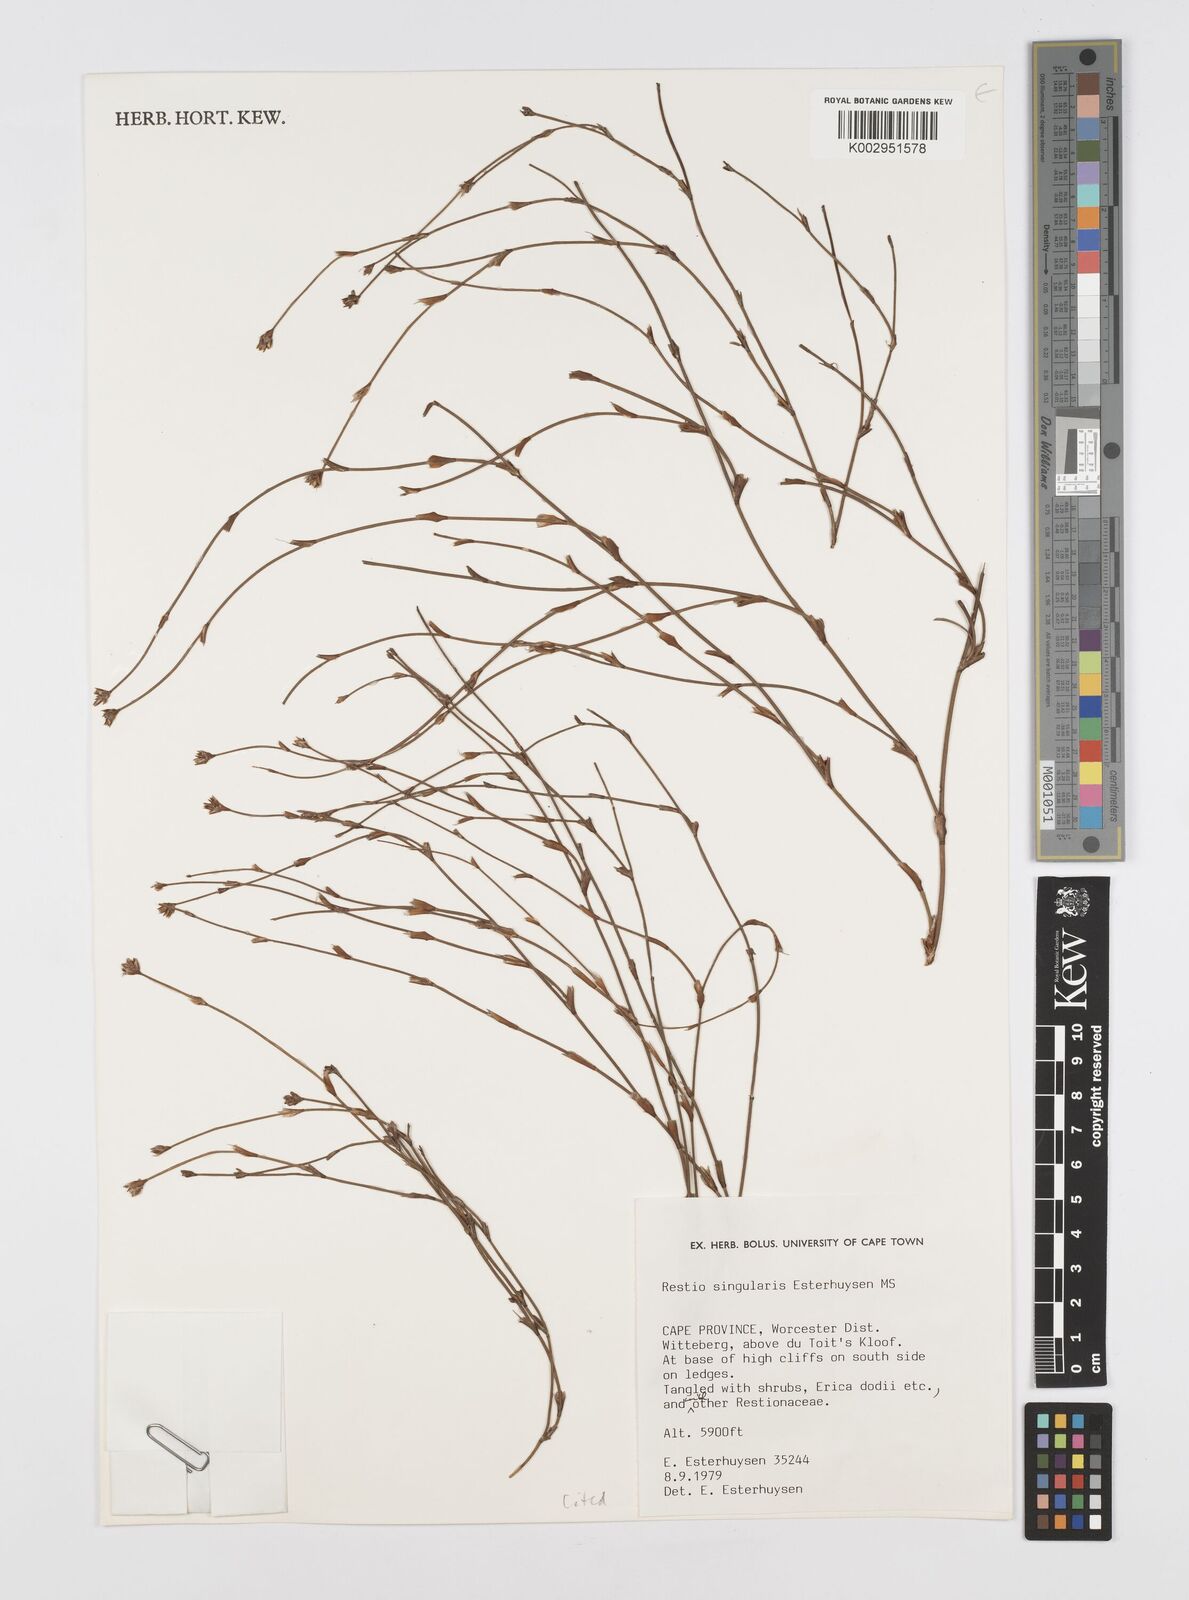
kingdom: Plantae
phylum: Tracheophyta
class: Liliopsida
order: Poales
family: Restionaceae
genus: Restio
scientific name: Restio singularis
